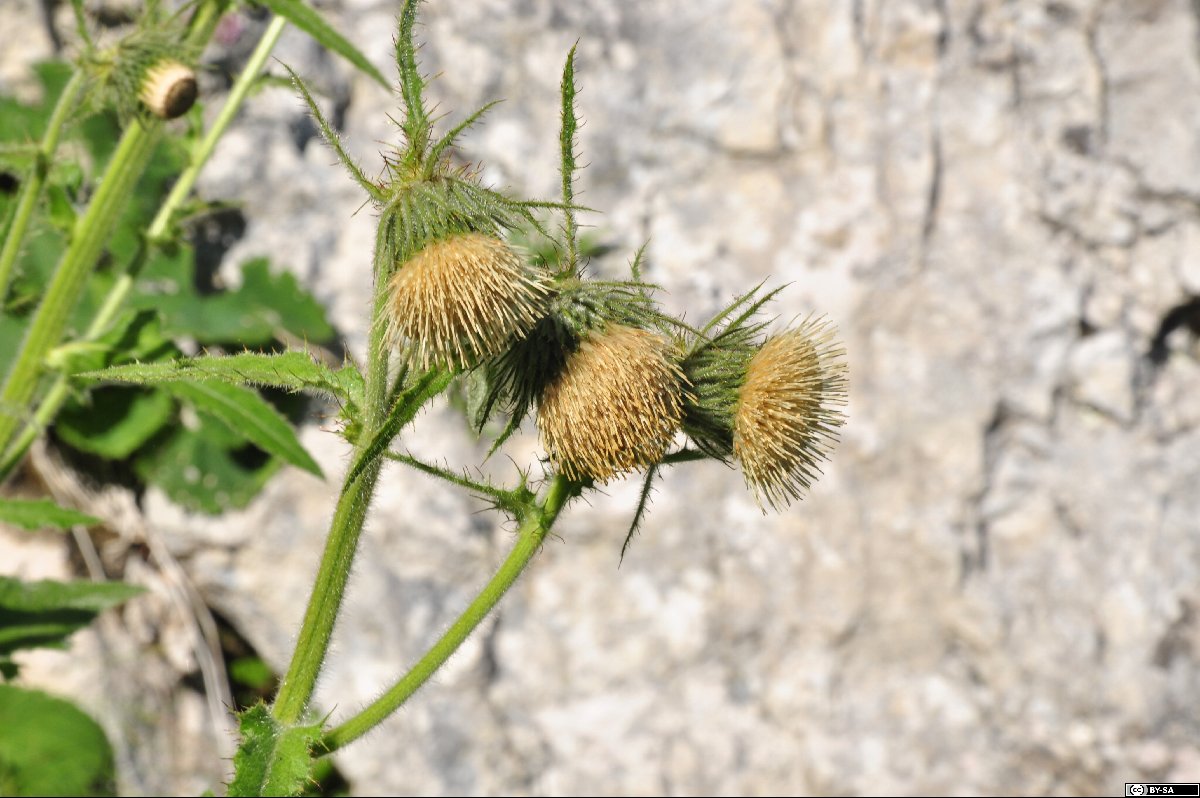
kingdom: Plantae
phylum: Tracheophyta
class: Magnoliopsida
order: Asterales
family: Asteraceae
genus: Cirsium
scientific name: Cirsium carniolicum
